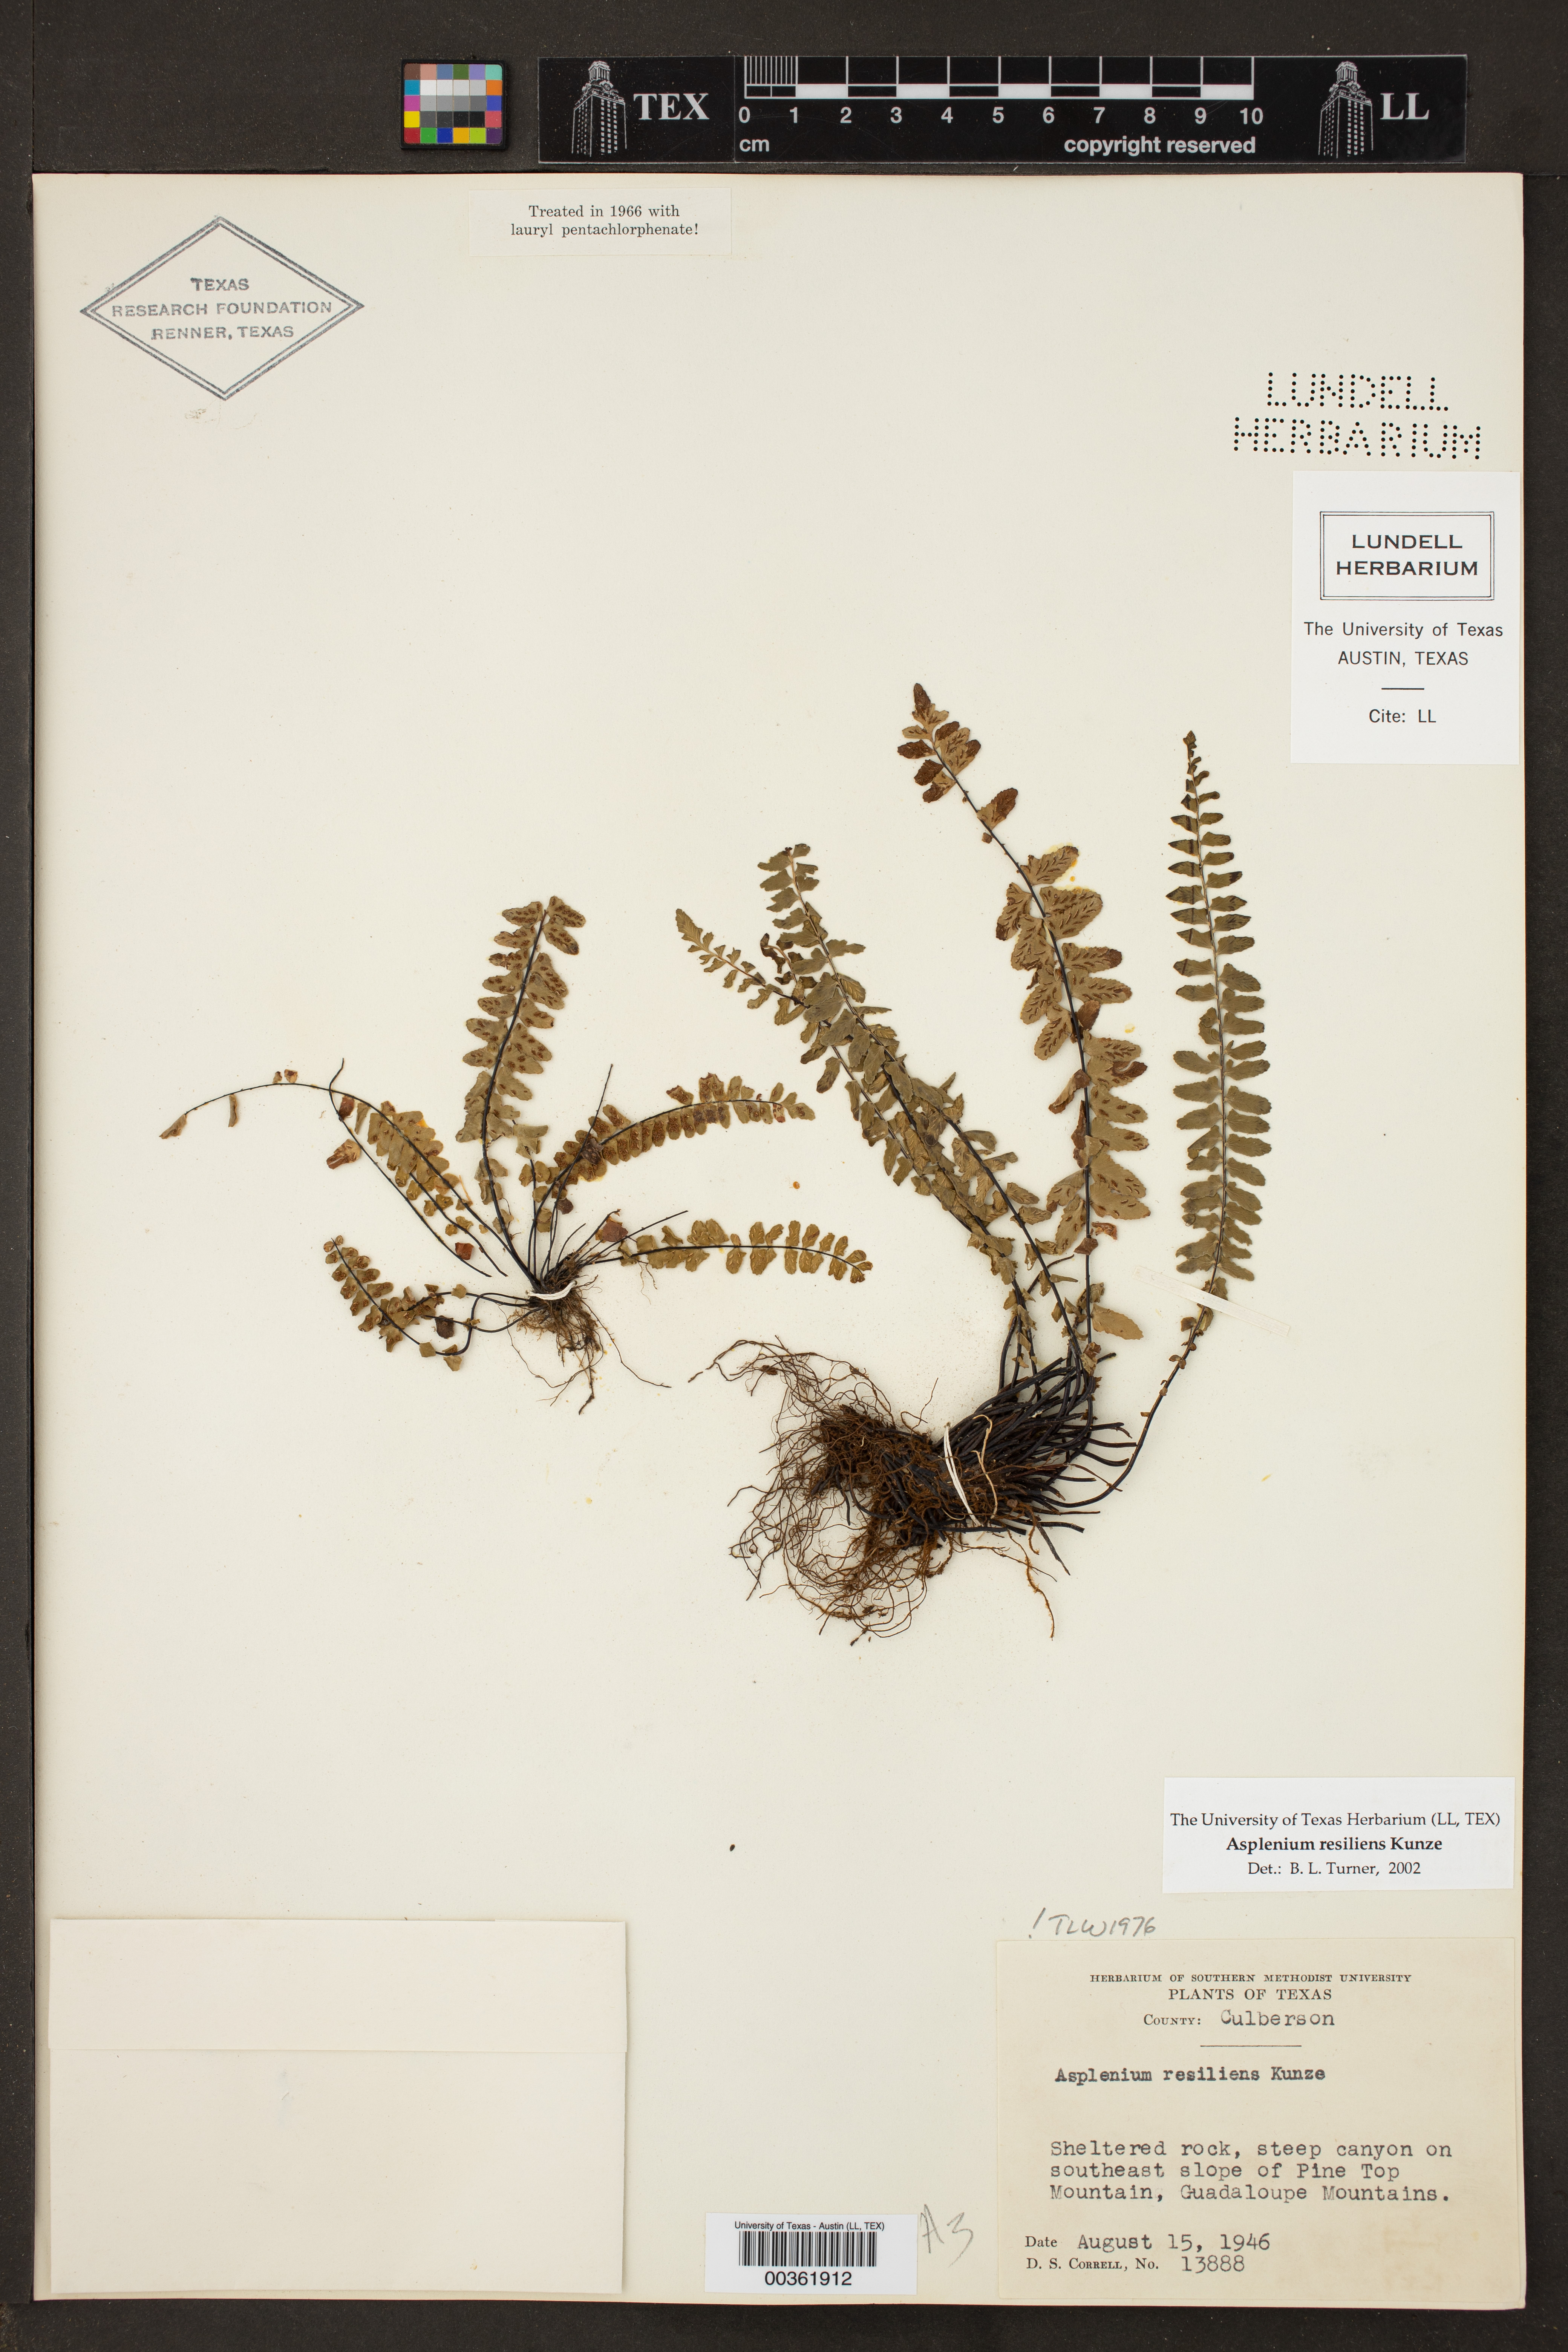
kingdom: Plantae
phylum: Tracheophyta
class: Polypodiopsida
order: Polypodiales
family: Aspleniaceae
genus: Asplenium
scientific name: Asplenium resiliens
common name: Blackstem spleenwort
